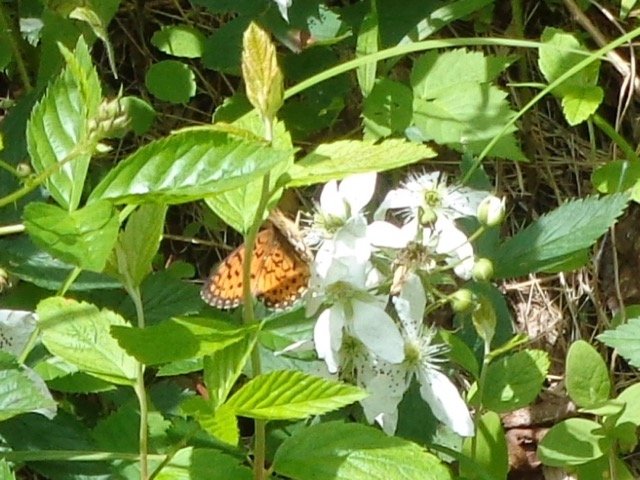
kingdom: Animalia
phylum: Arthropoda
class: Insecta
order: Lepidoptera
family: Nymphalidae
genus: Boloria
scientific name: Boloria selene
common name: Silver-bordered Fritillary
